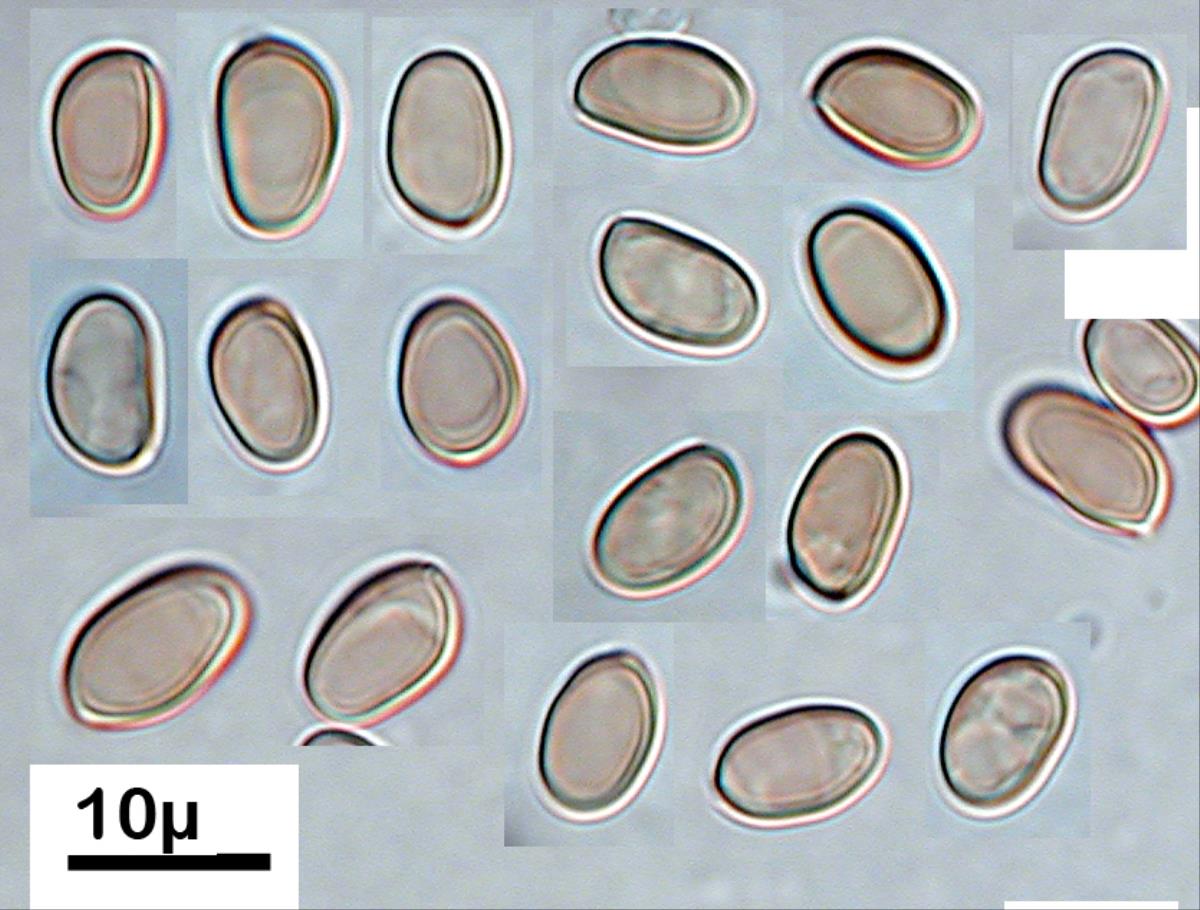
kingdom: Fungi
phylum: Basidiomycota
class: Agaricomycetes
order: Agaricales
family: Tubariaceae
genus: Flammulaster
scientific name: Flammulaster
